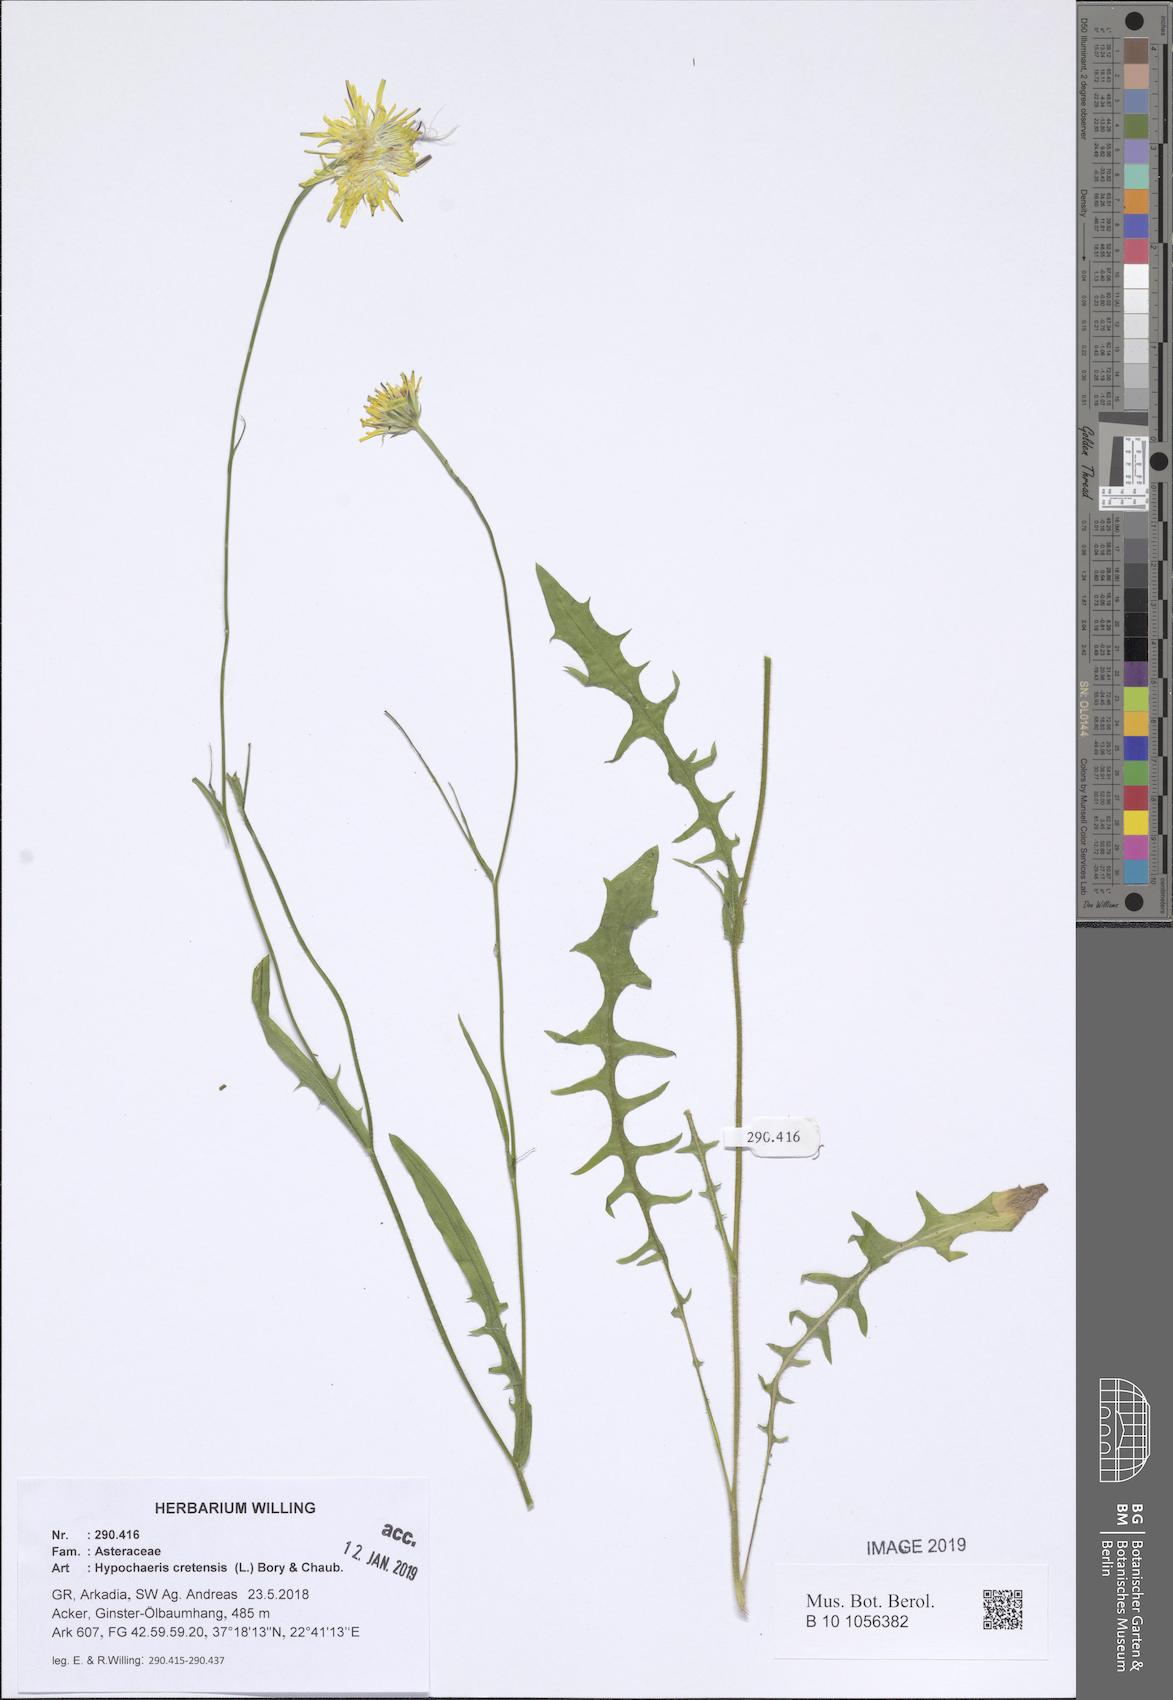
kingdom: Plantae
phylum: Tracheophyta
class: Magnoliopsida
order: Asterales
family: Asteraceae
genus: Hypochaeris
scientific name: Hypochaeris cretensis
